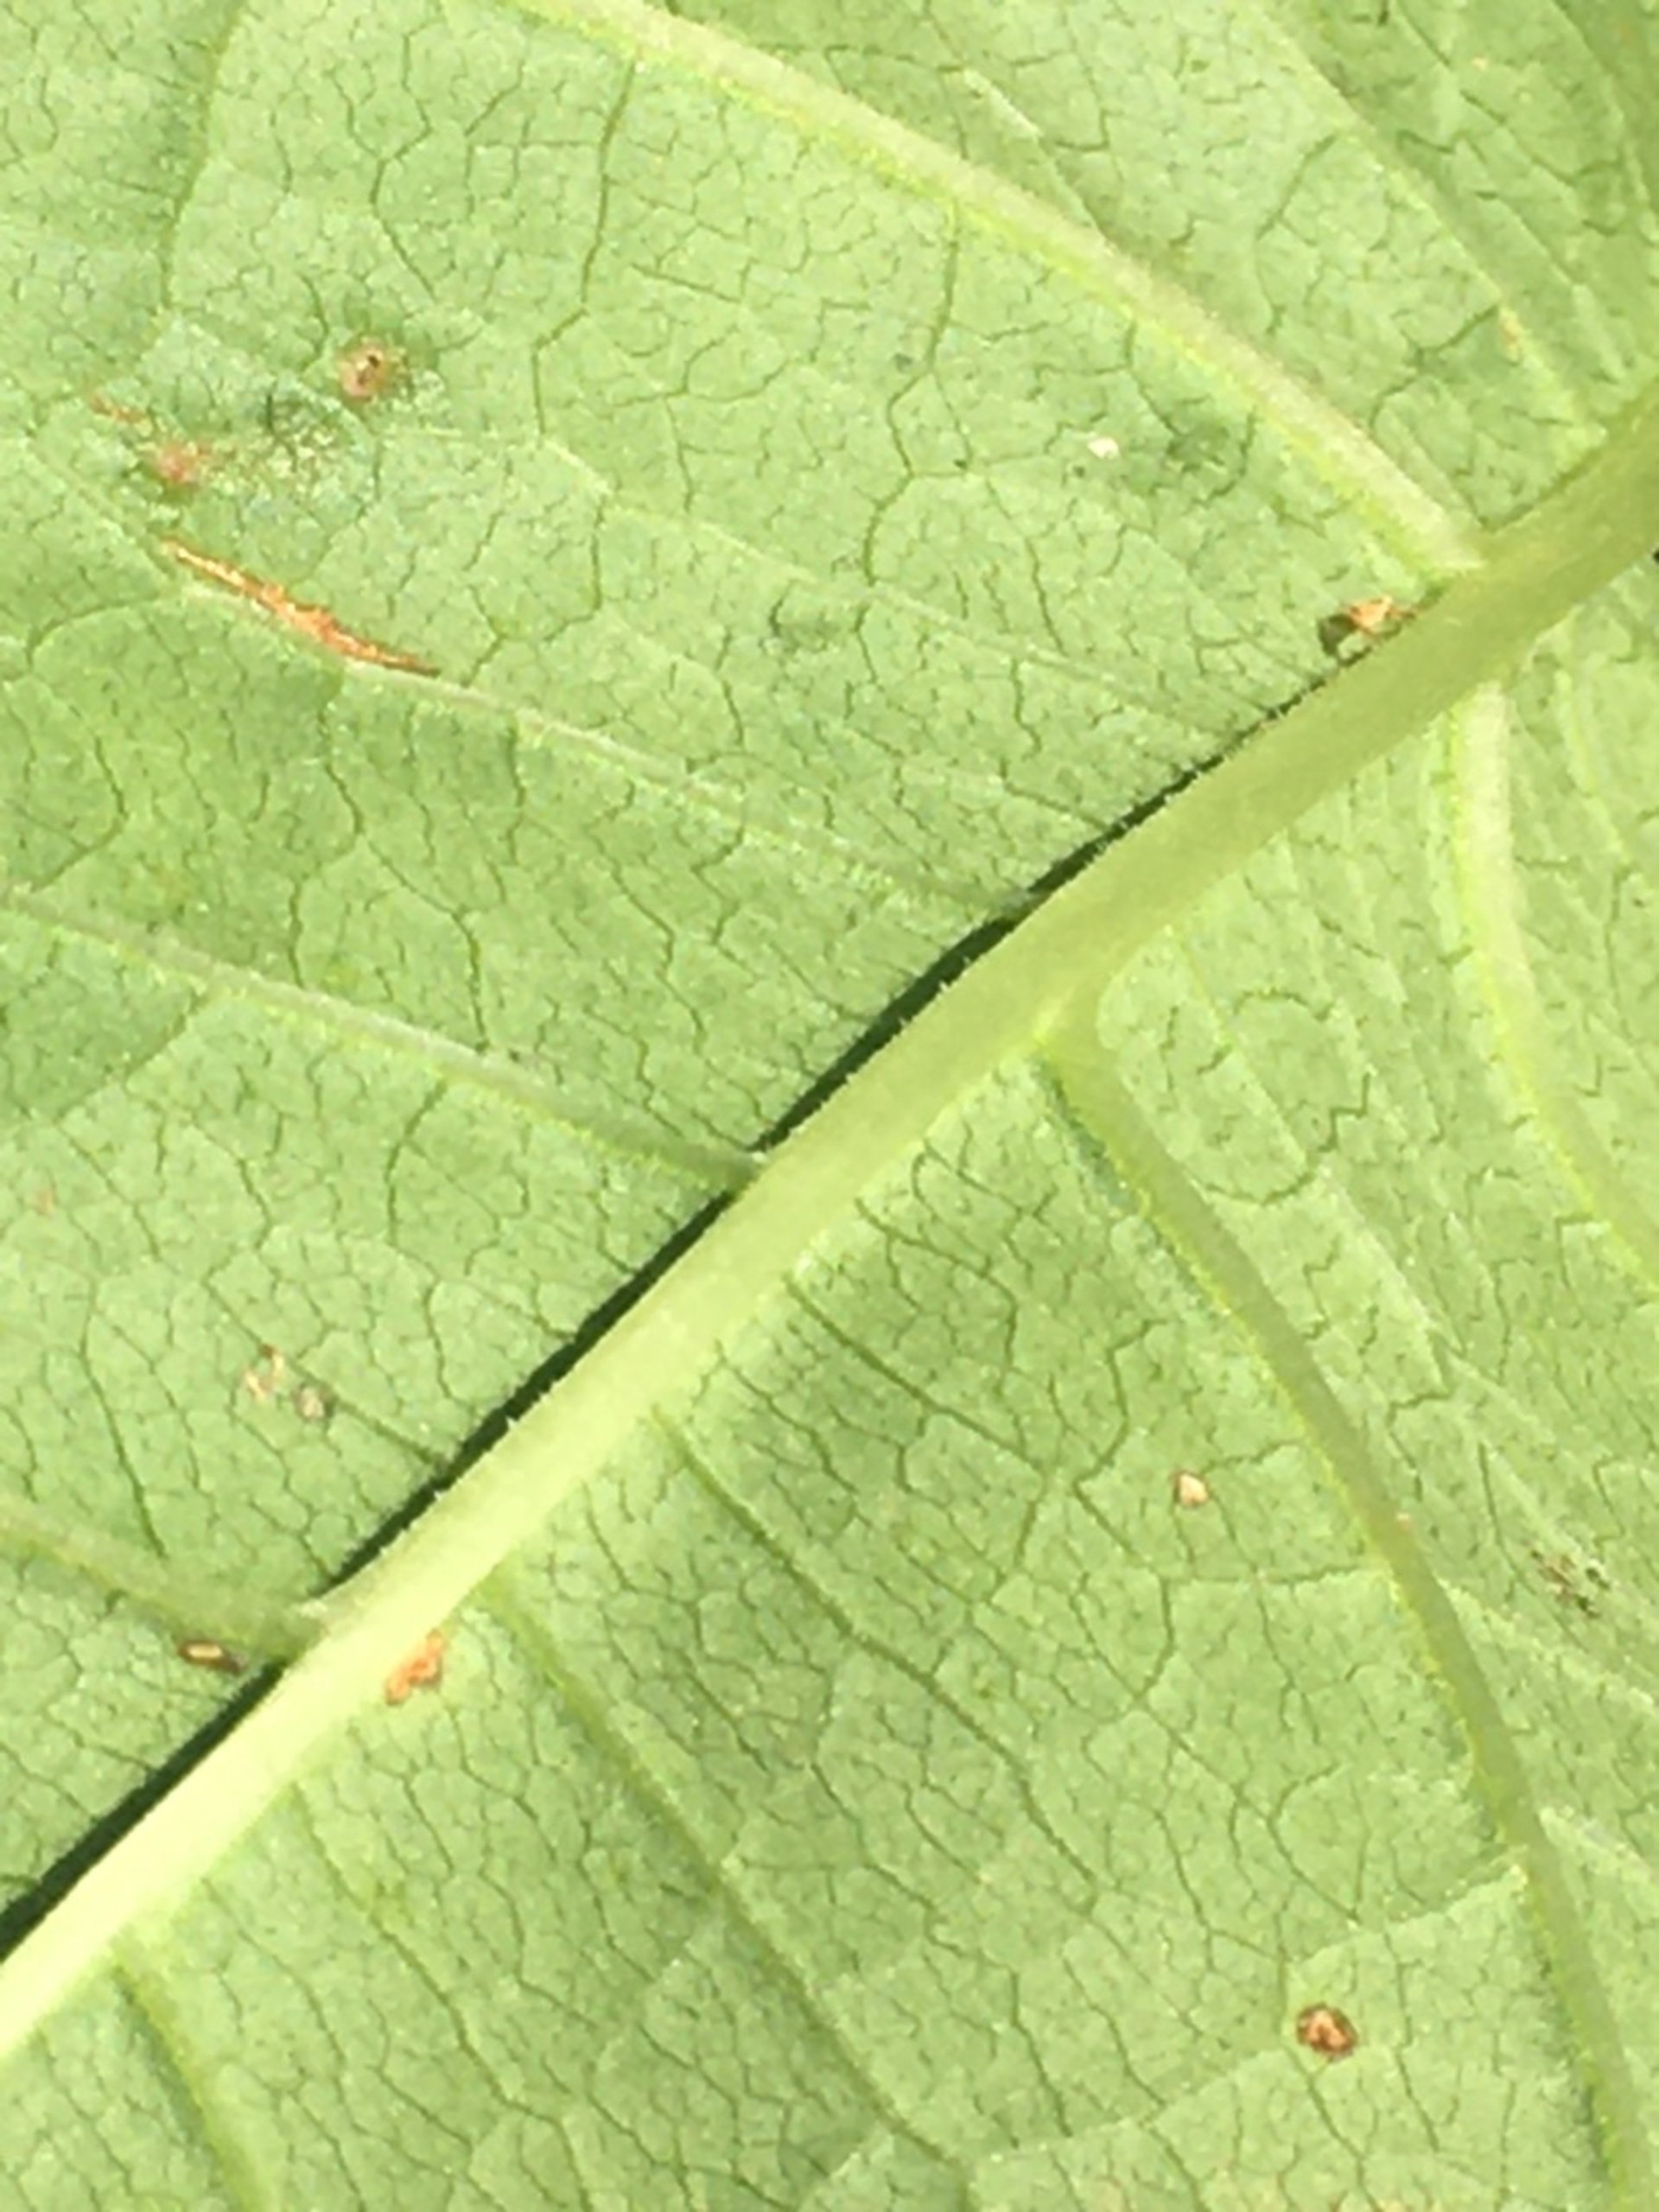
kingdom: Plantae
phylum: Tracheophyta
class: Magnoliopsida
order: Caryophyllales
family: Polygonaceae
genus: Reynoutria
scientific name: Reynoutria bohemica
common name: Hybrid-pileurt
